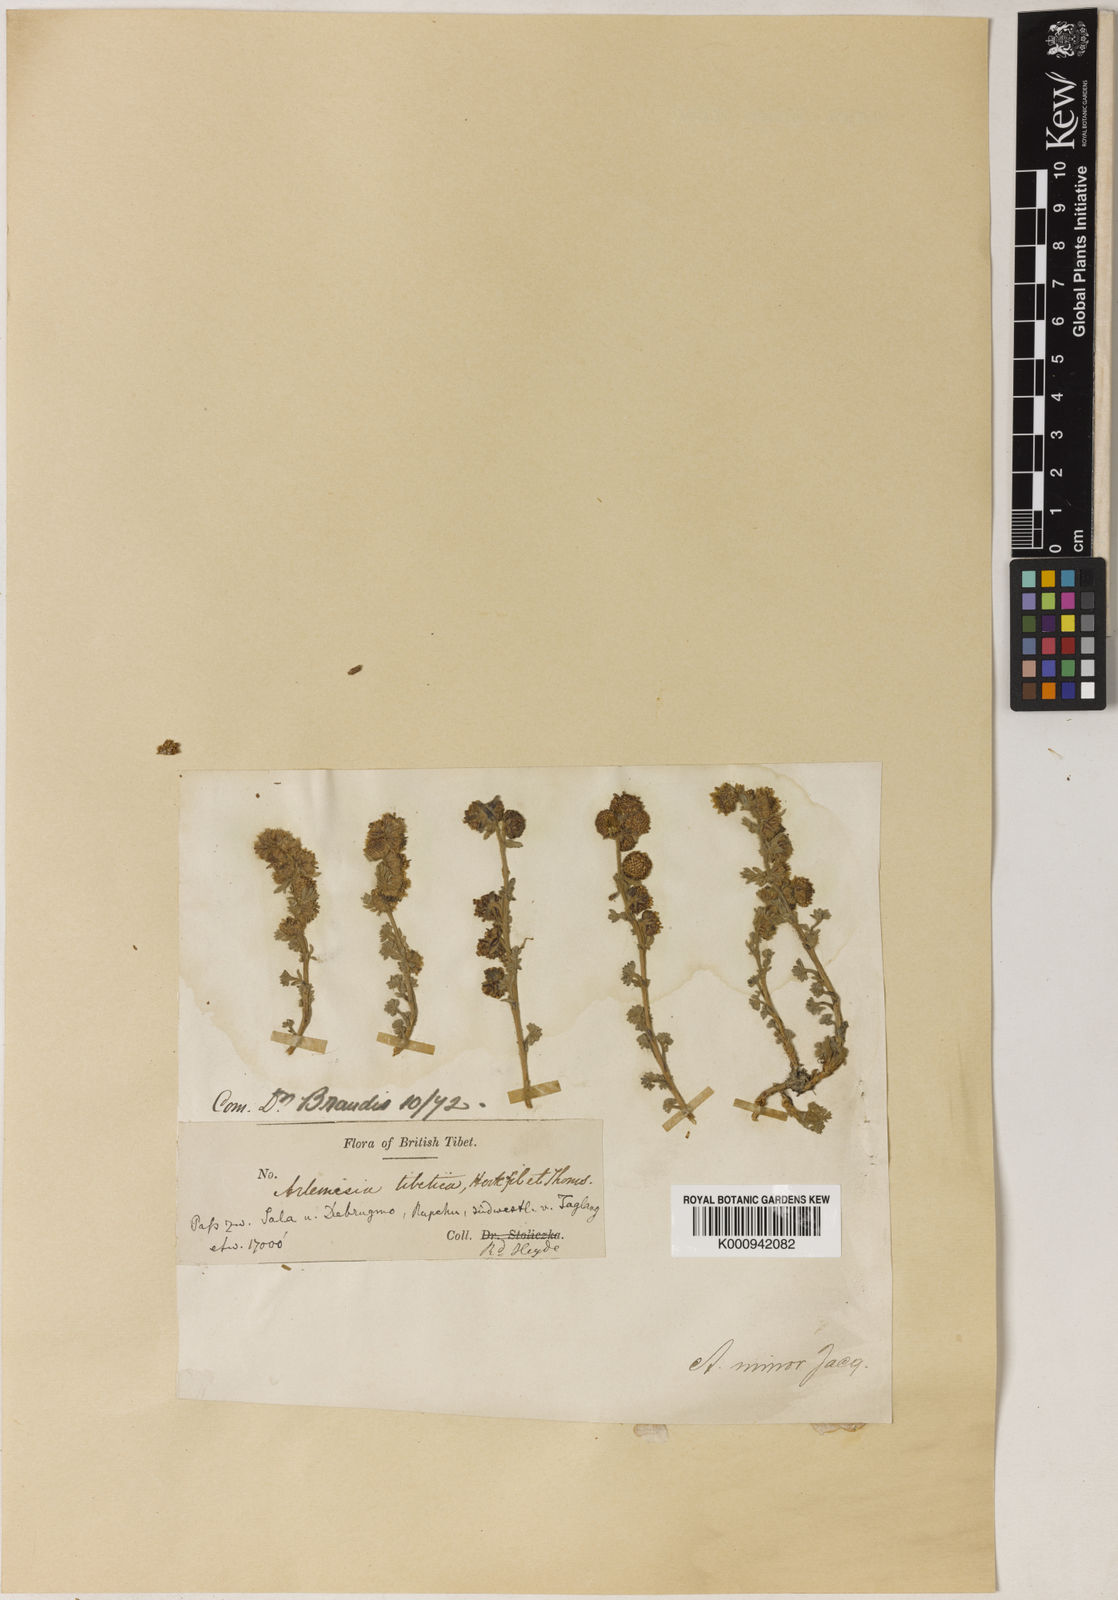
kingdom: Plantae
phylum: Tracheophyta
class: Magnoliopsida
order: Asterales
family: Asteraceae
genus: Artemisia
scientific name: Artemisia minor
